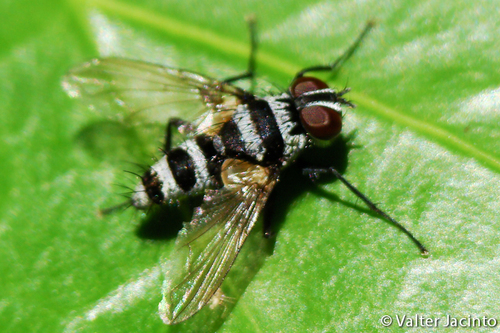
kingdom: Animalia
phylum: Arthropoda
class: Insecta
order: Diptera
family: Tachinidae
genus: Trigonospila
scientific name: Trigonospila transvittata
